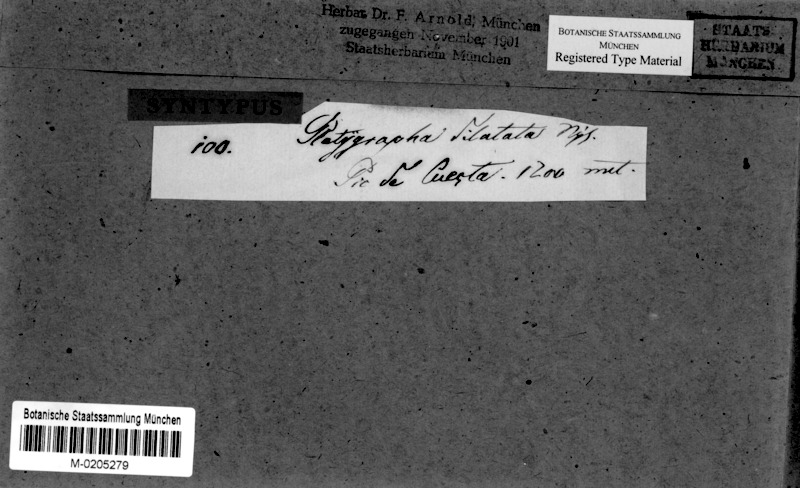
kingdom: Fungi
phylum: Ascomycota
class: Arthoniomycetes
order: Arthoniales
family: Roccellaceae
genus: Sagenidiopsis
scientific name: Sagenidiopsis undulata
